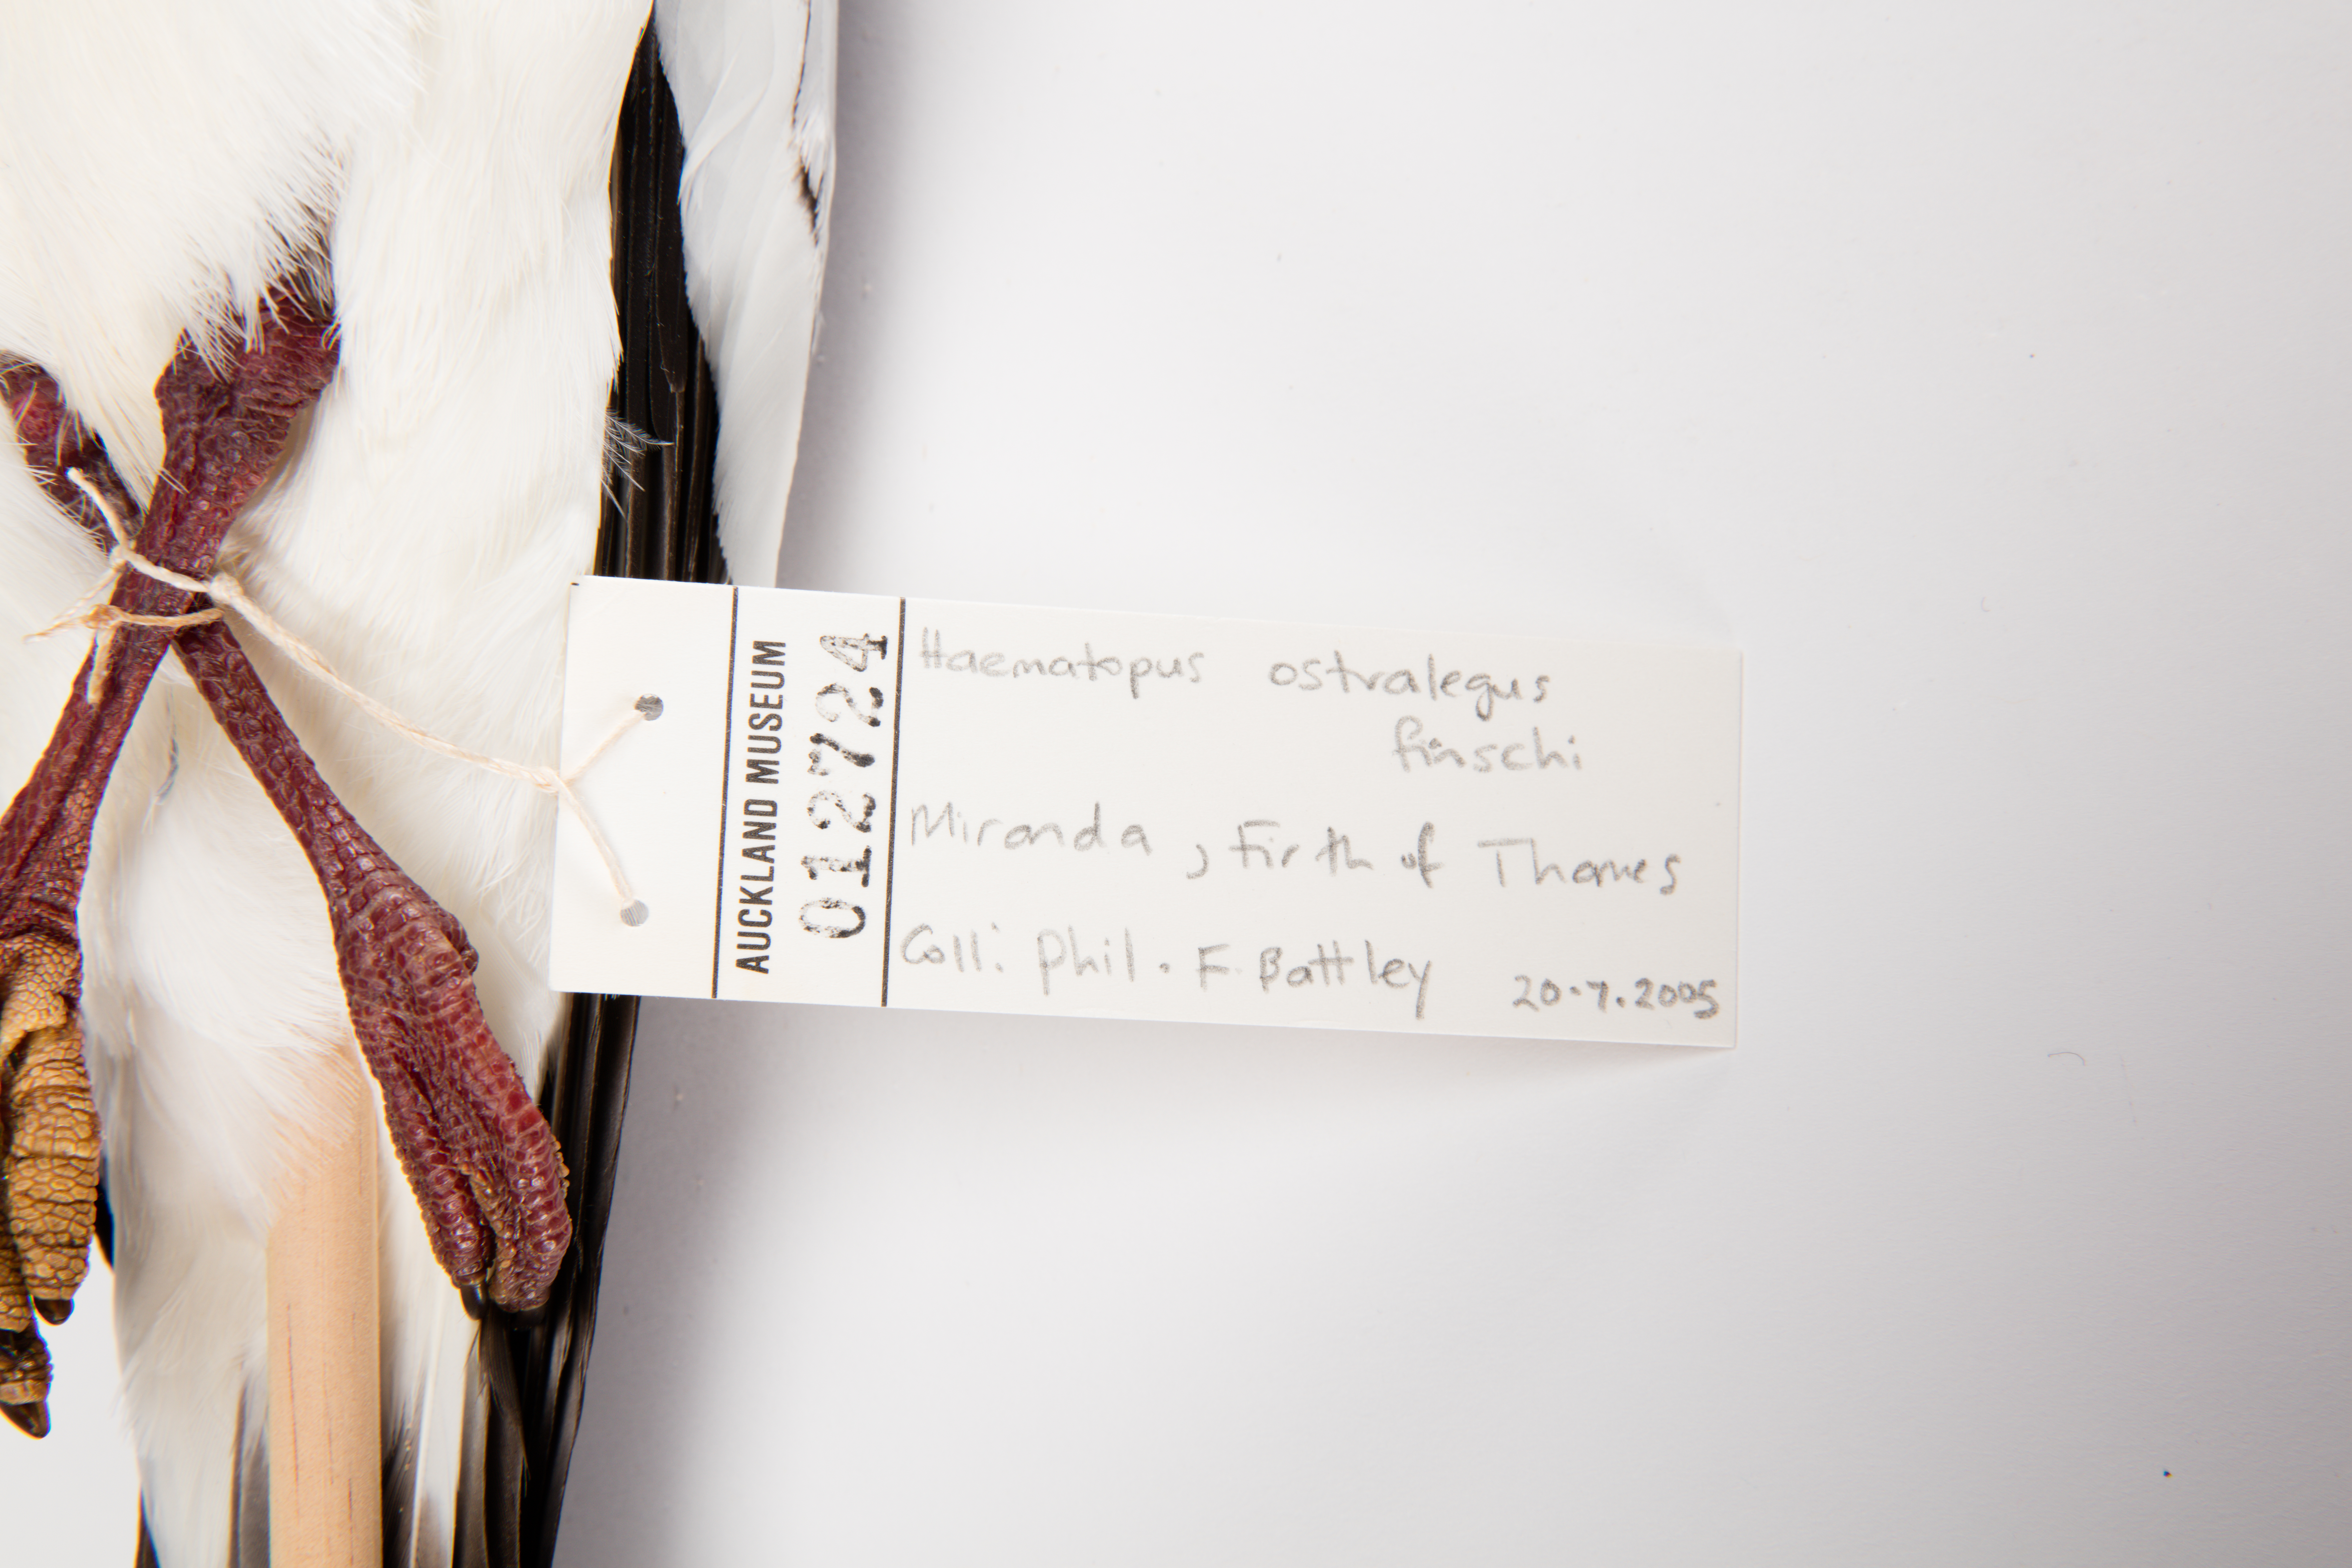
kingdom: Animalia
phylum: Chordata
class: Aves
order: Charadriiformes
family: Haematopodidae
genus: Haematopus
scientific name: Haematopus finschi
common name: South island oystercatcher
